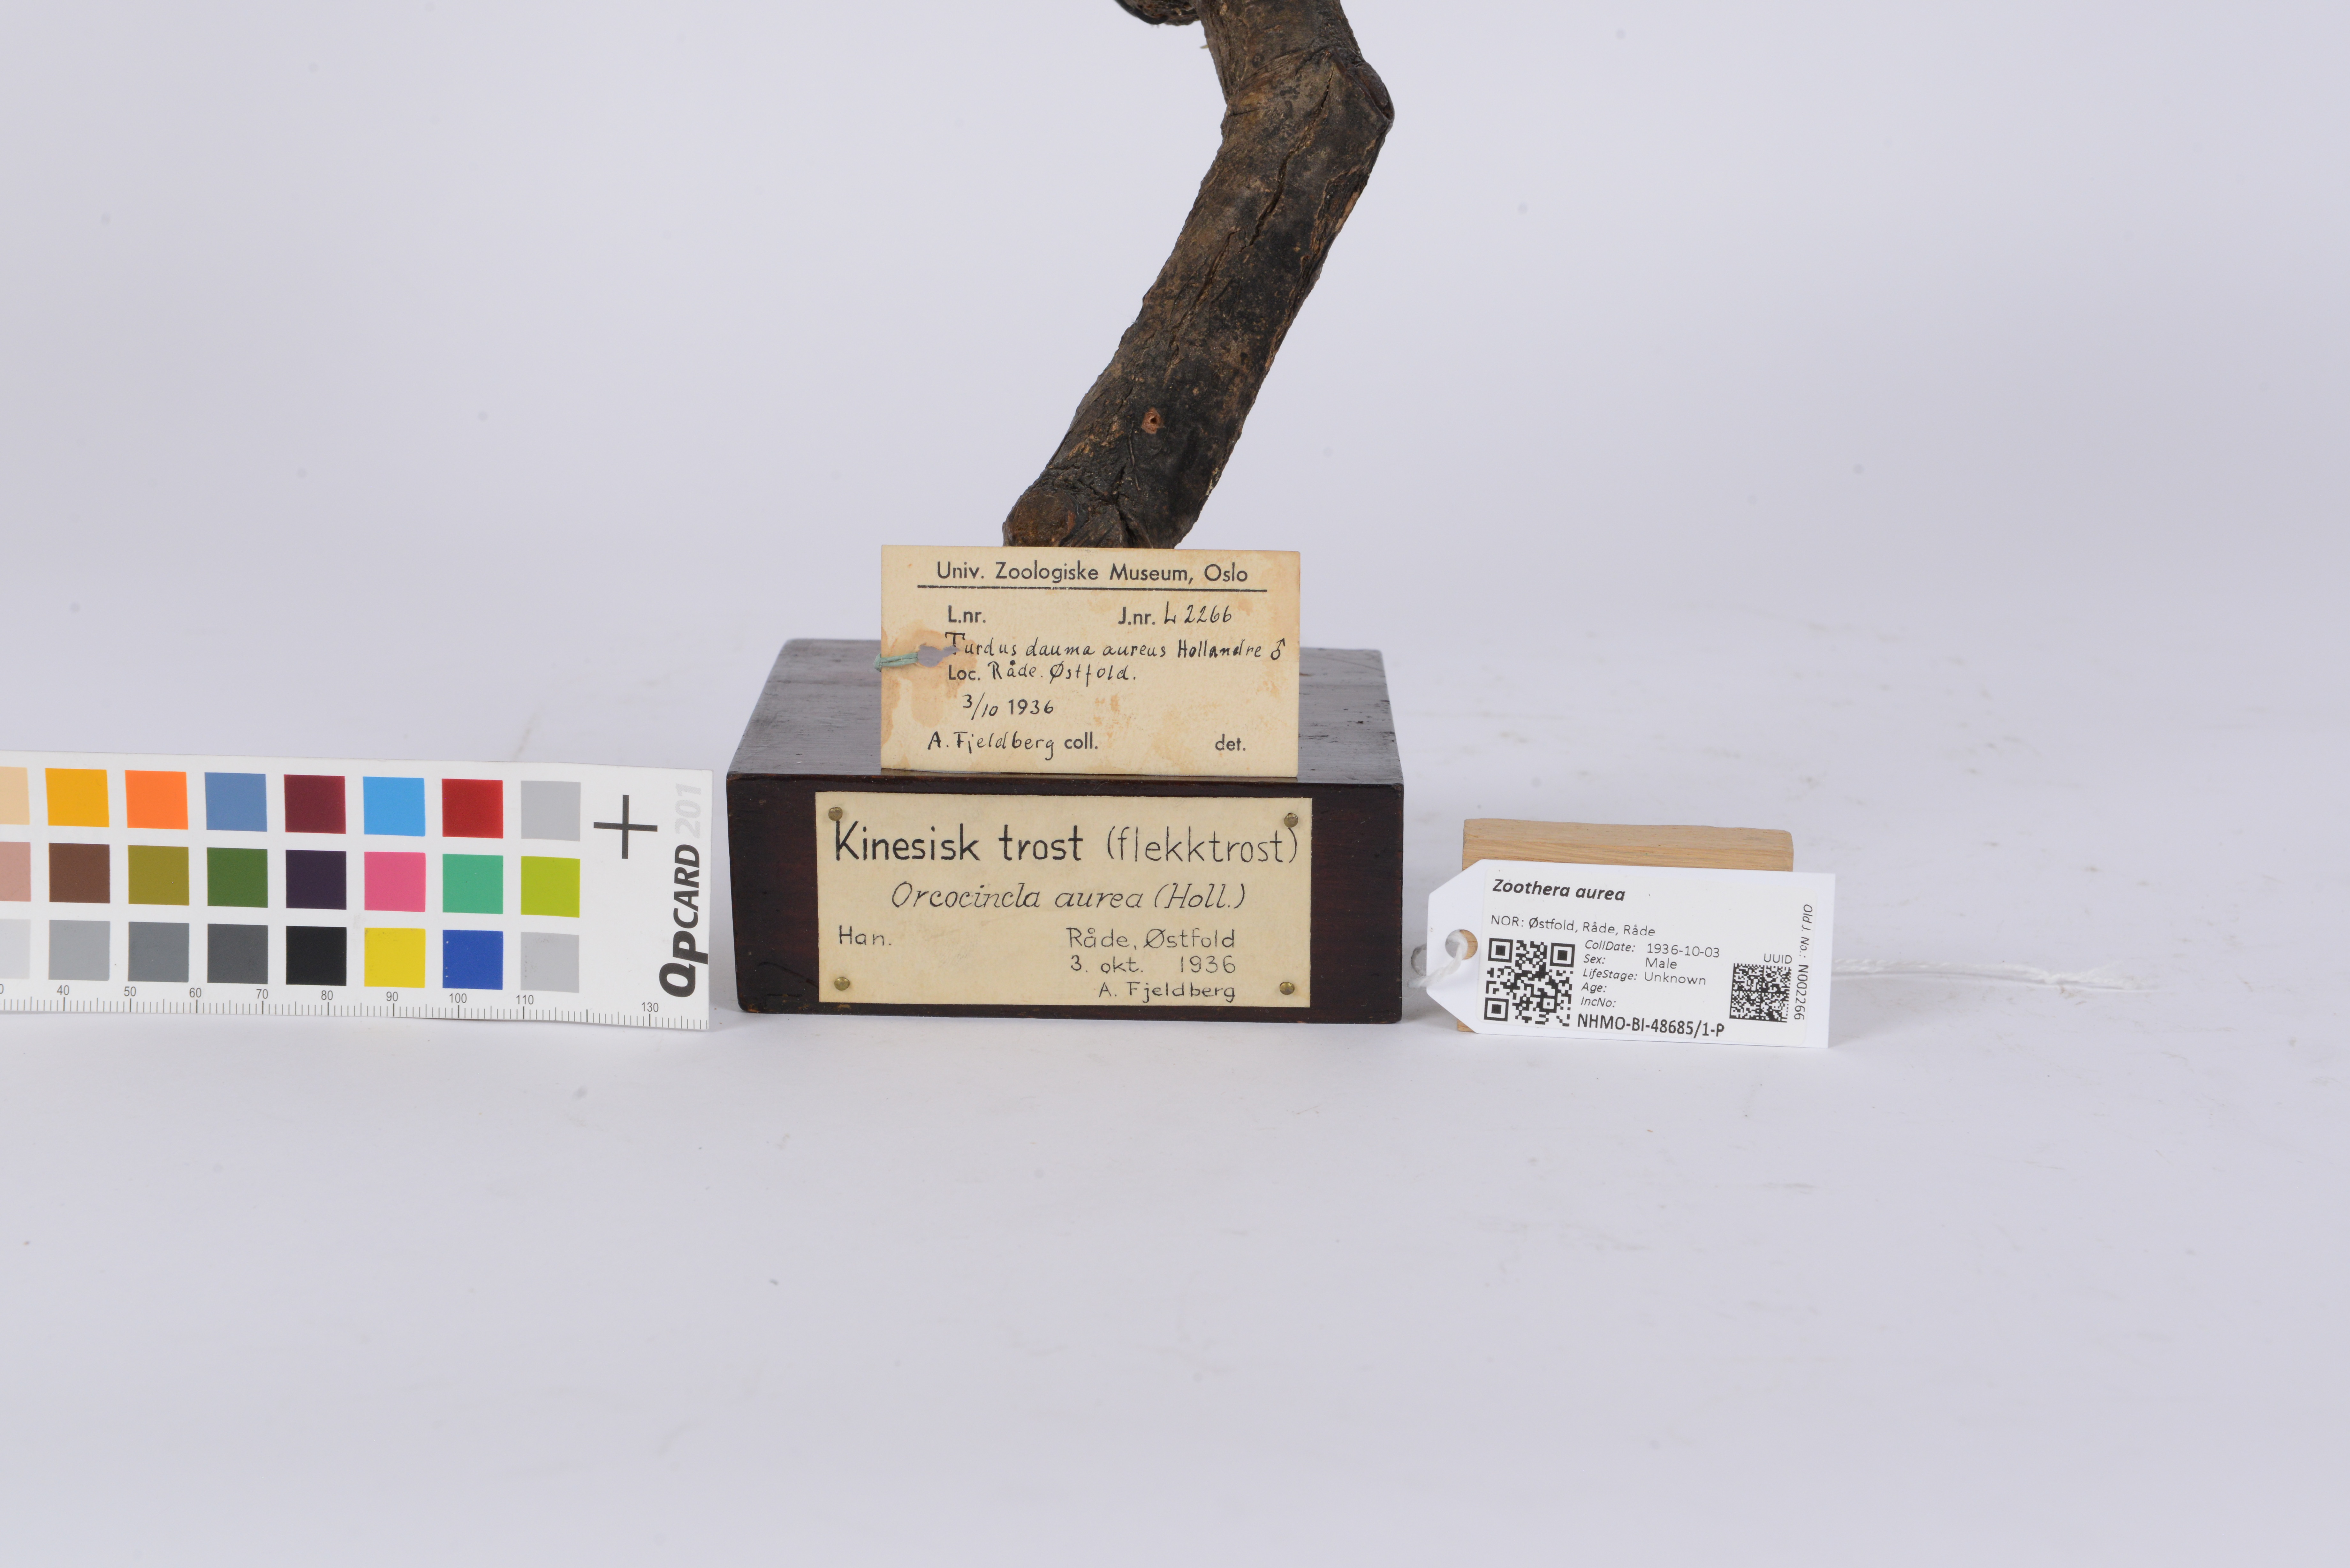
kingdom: Animalia
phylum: Chordata
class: Aves
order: Passeriformes
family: Turdidae
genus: Zoothera
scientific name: Zoothera aurea
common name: White's thrush
